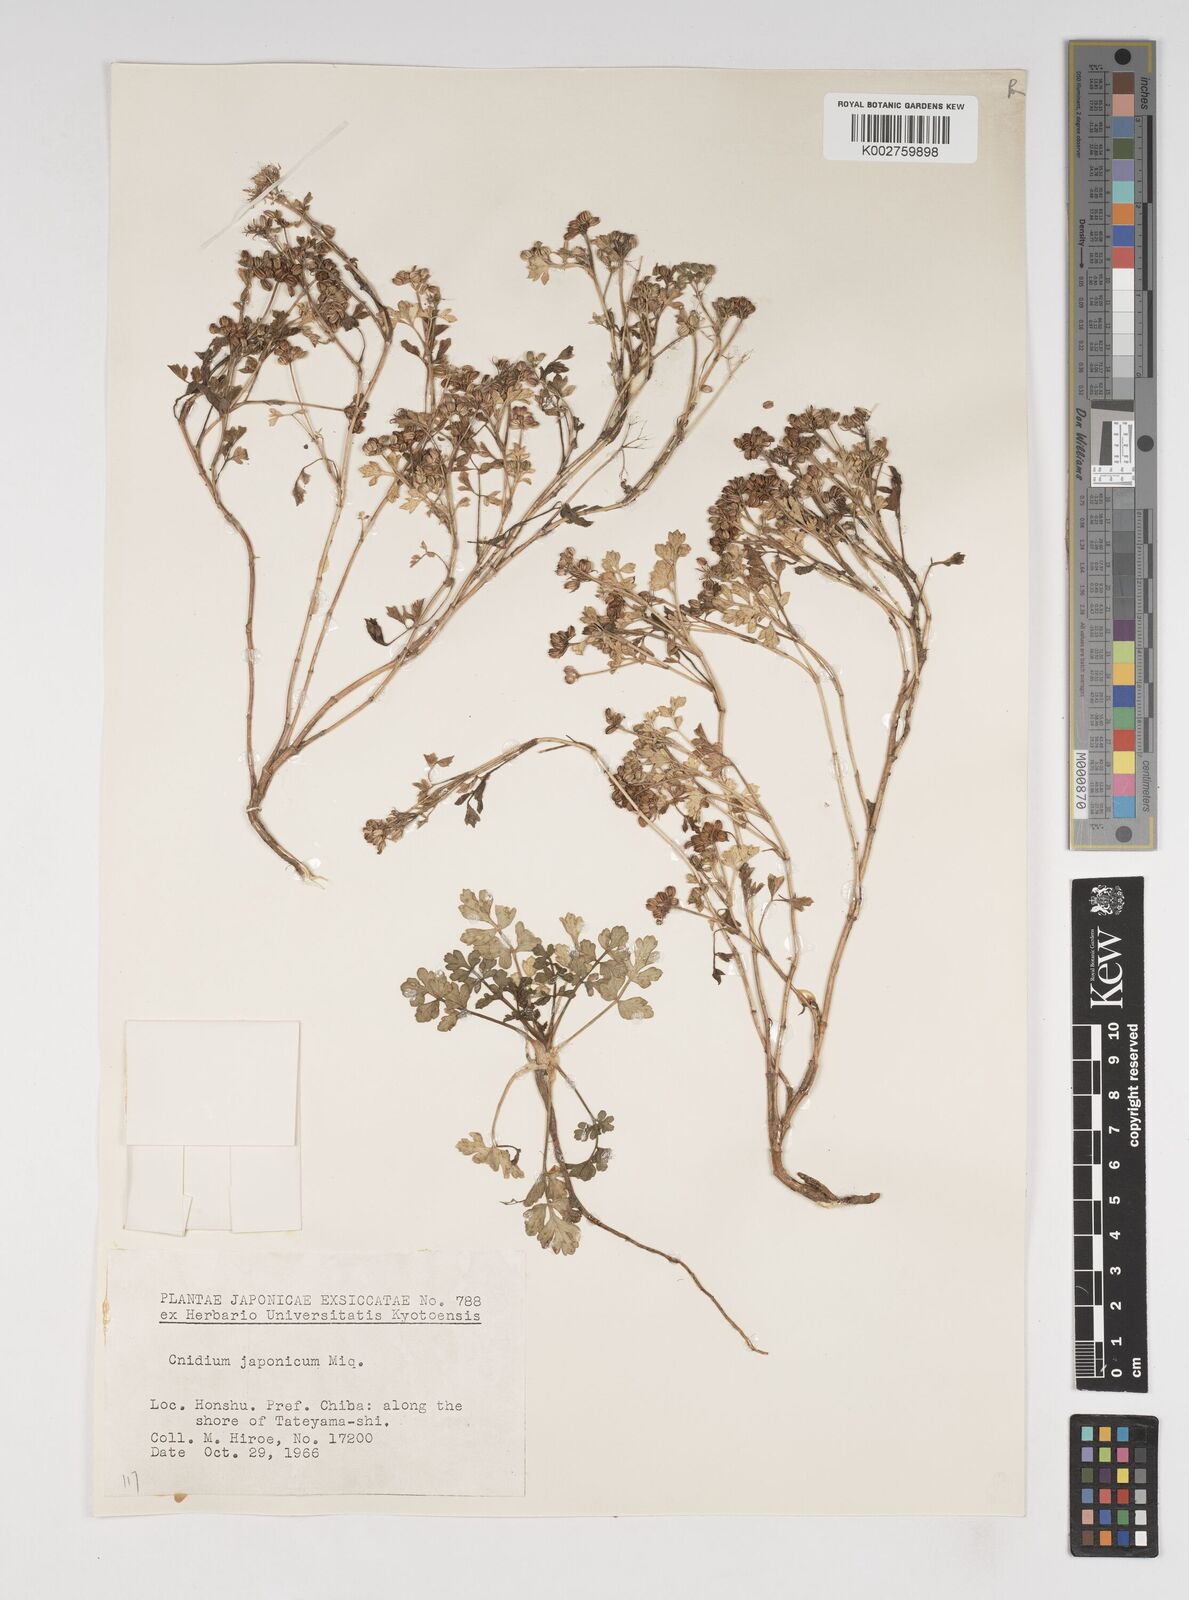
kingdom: Plantae
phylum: Tracheophyta
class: Magnoliopsida
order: Apiales
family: Apiaceae
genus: Cnidium
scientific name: Cnidium japonicum
